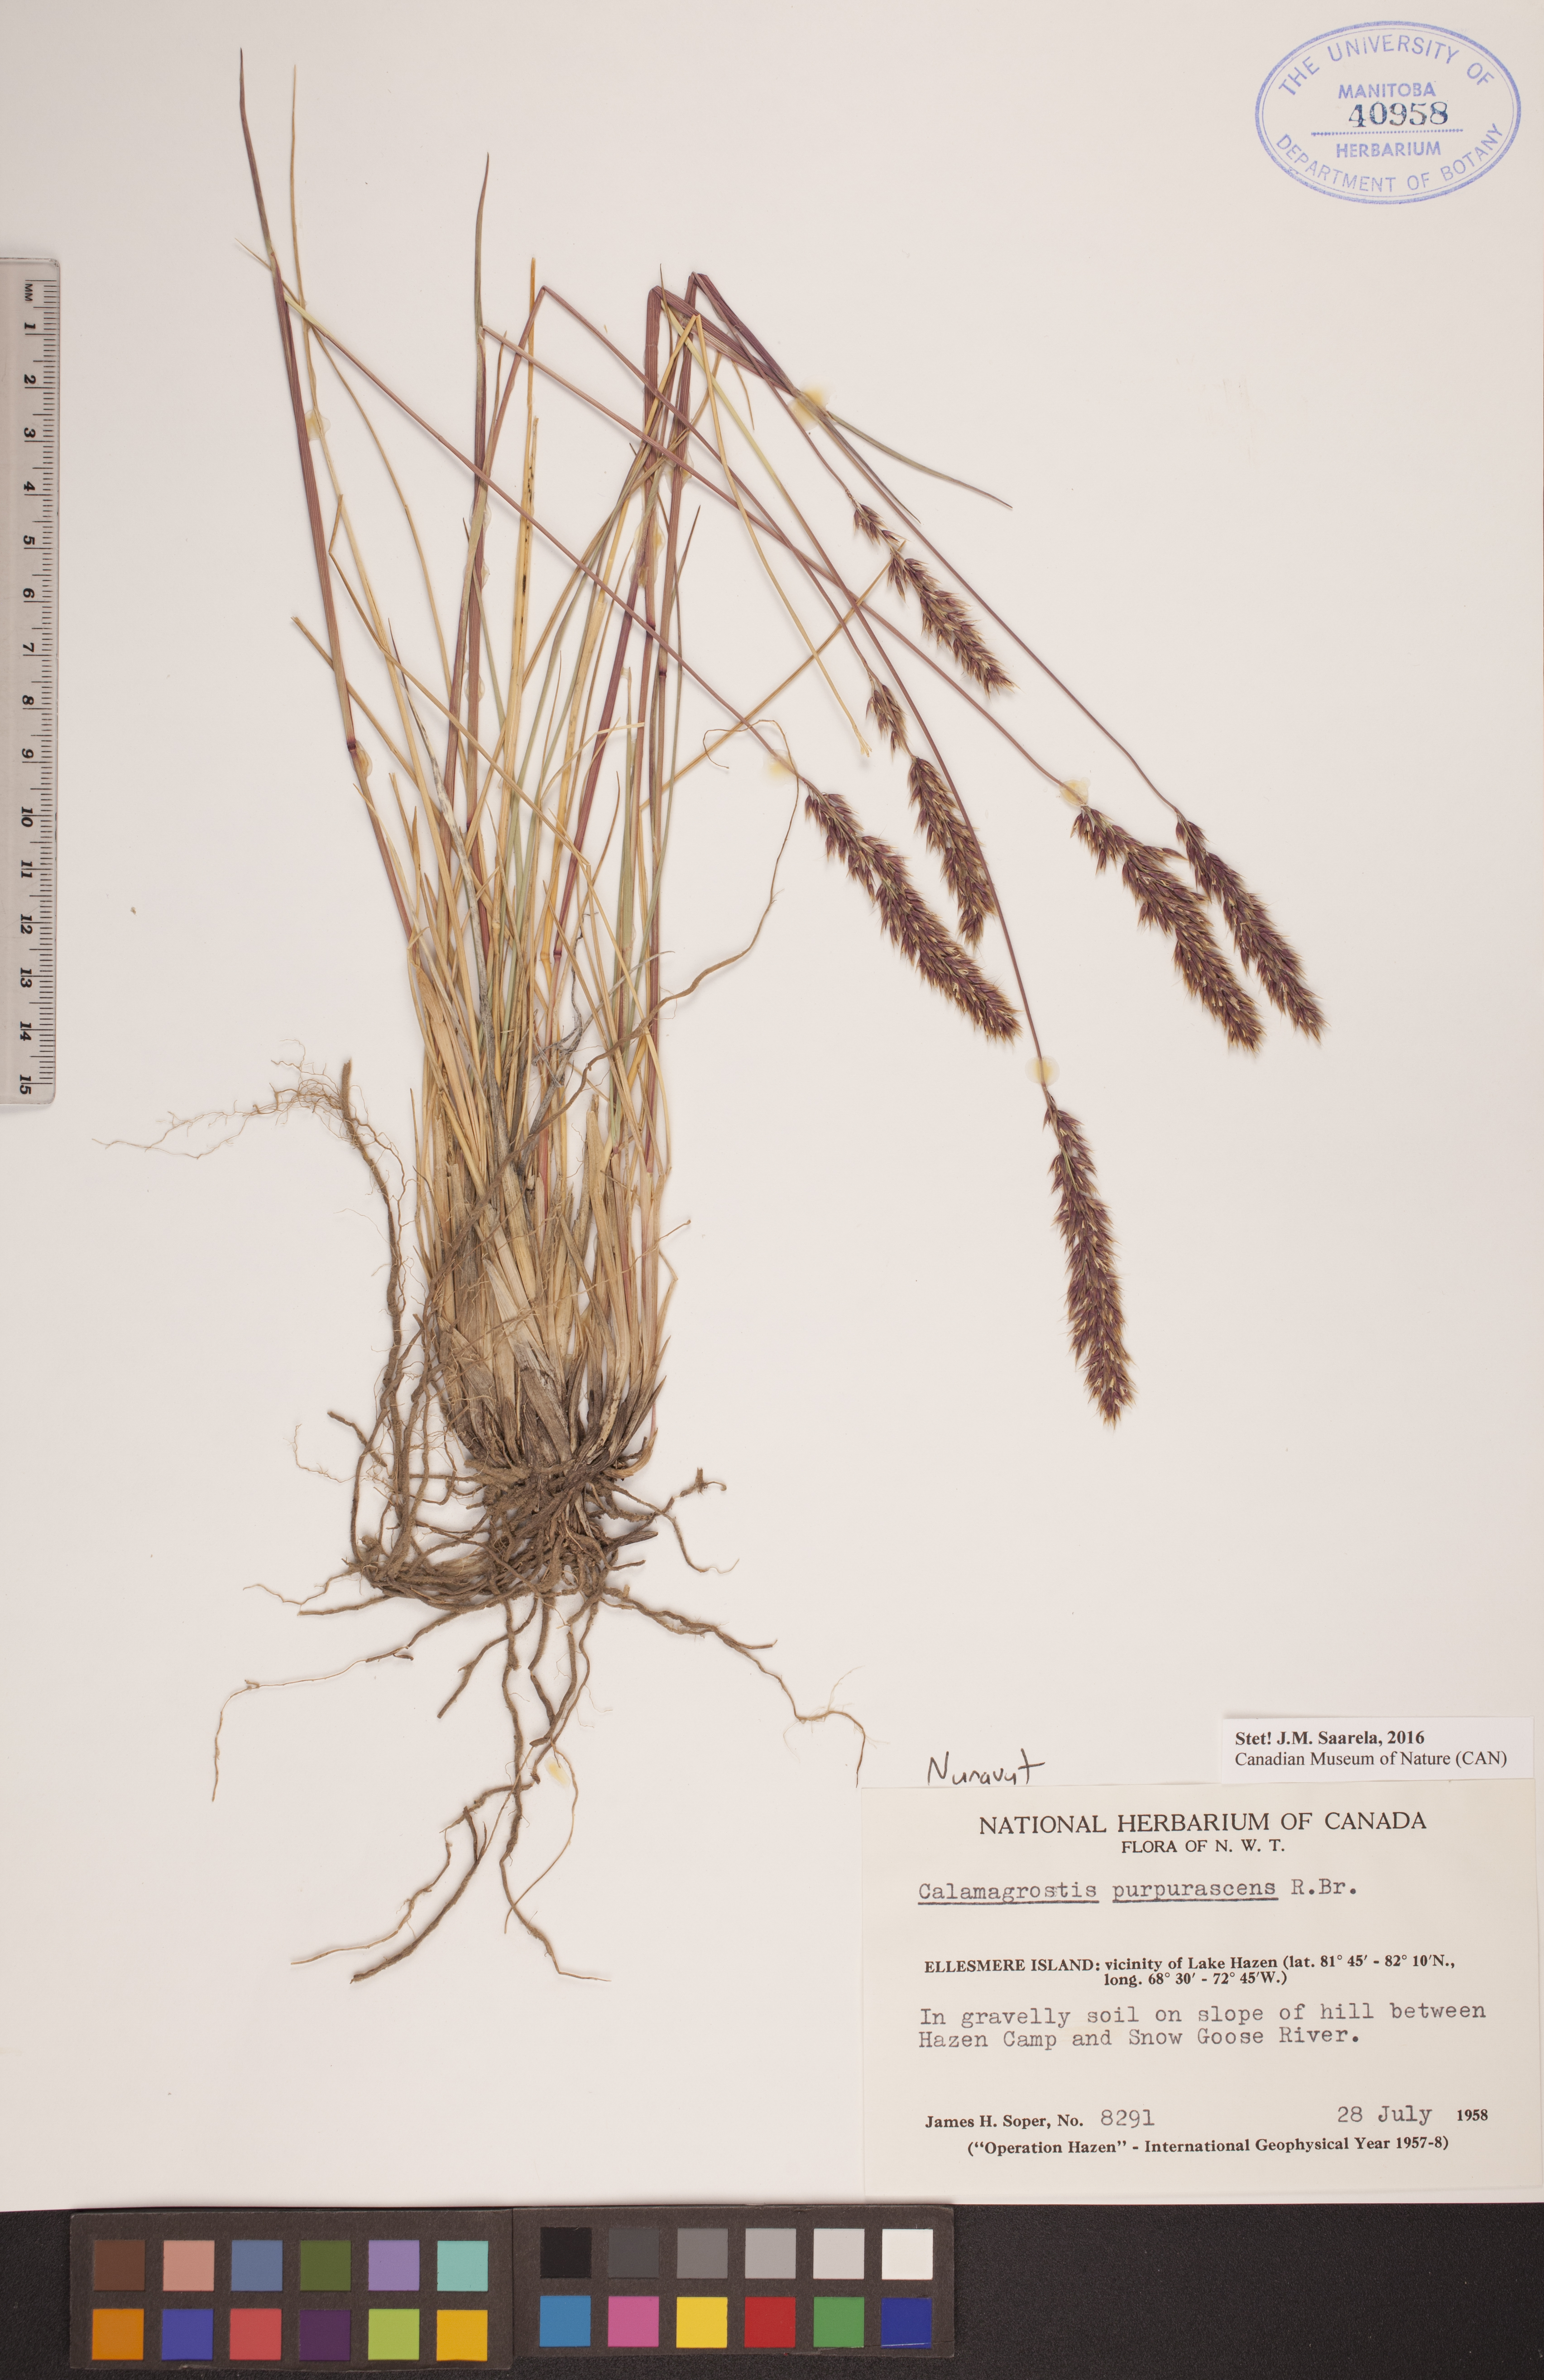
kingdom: Plantae
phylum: Tracheophyta
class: Liliopsida
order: Poales
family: Poaceae
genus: Calamagrostis
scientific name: Calamagrostis purpurascens
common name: Purple reedgrass
